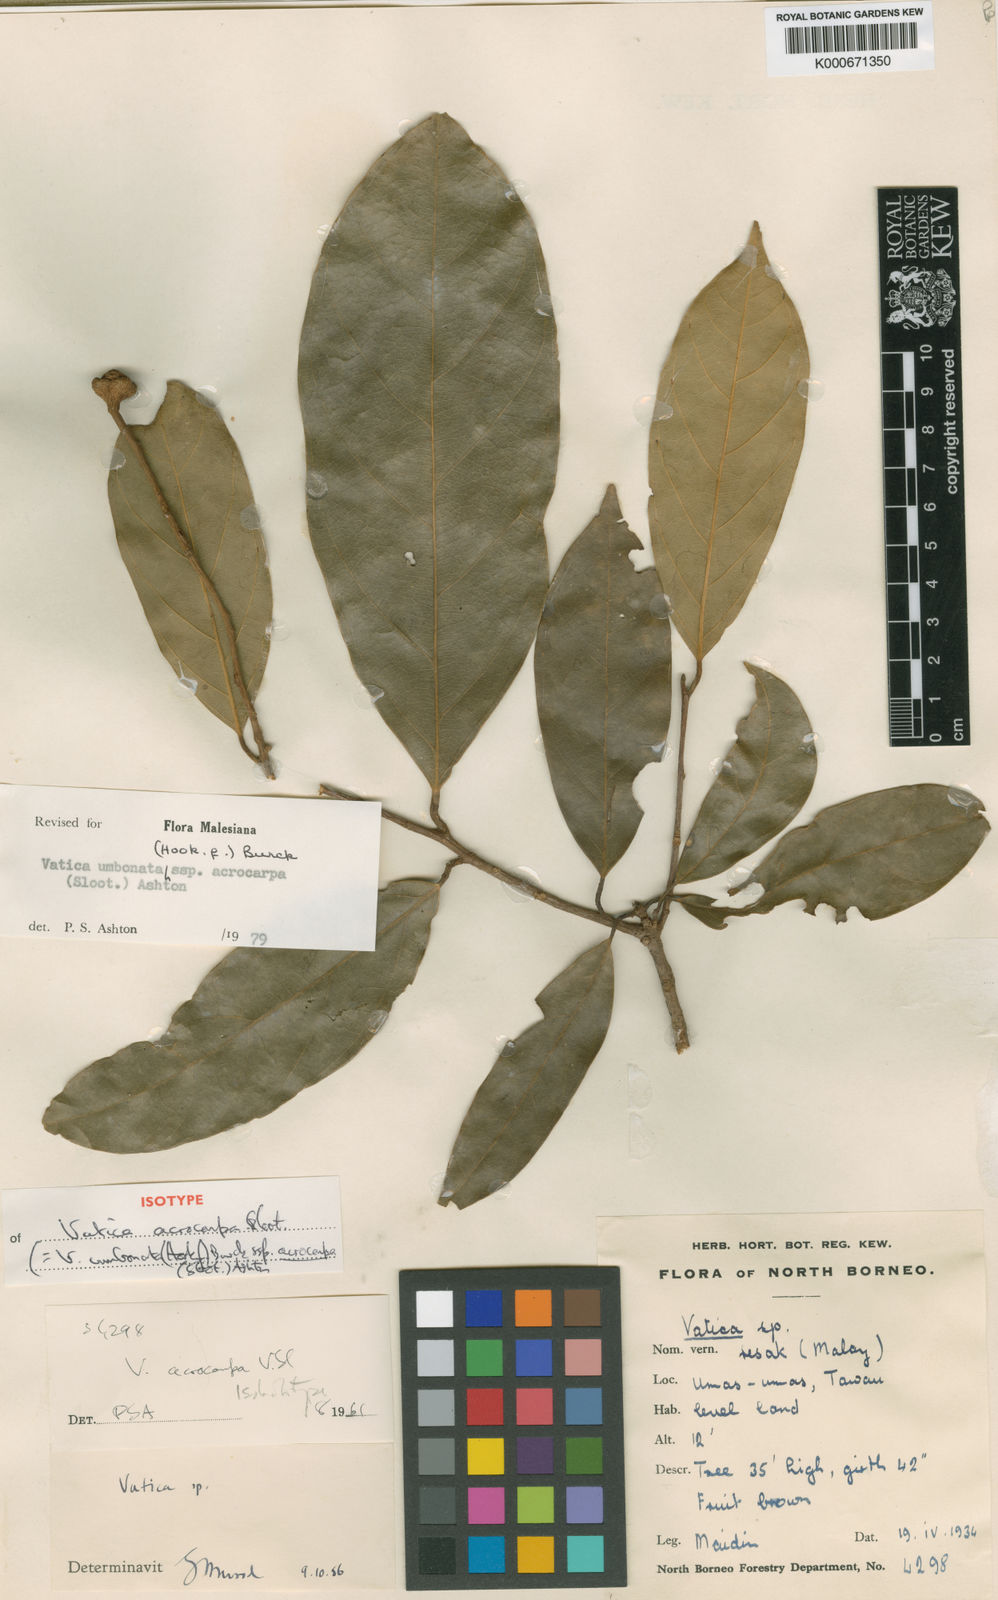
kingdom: Plantae
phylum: Tracheophyta
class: Magnoliopsida
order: Malvales
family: Dipterocarpaceae
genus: Vatica
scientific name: Vatica acrocarpa
